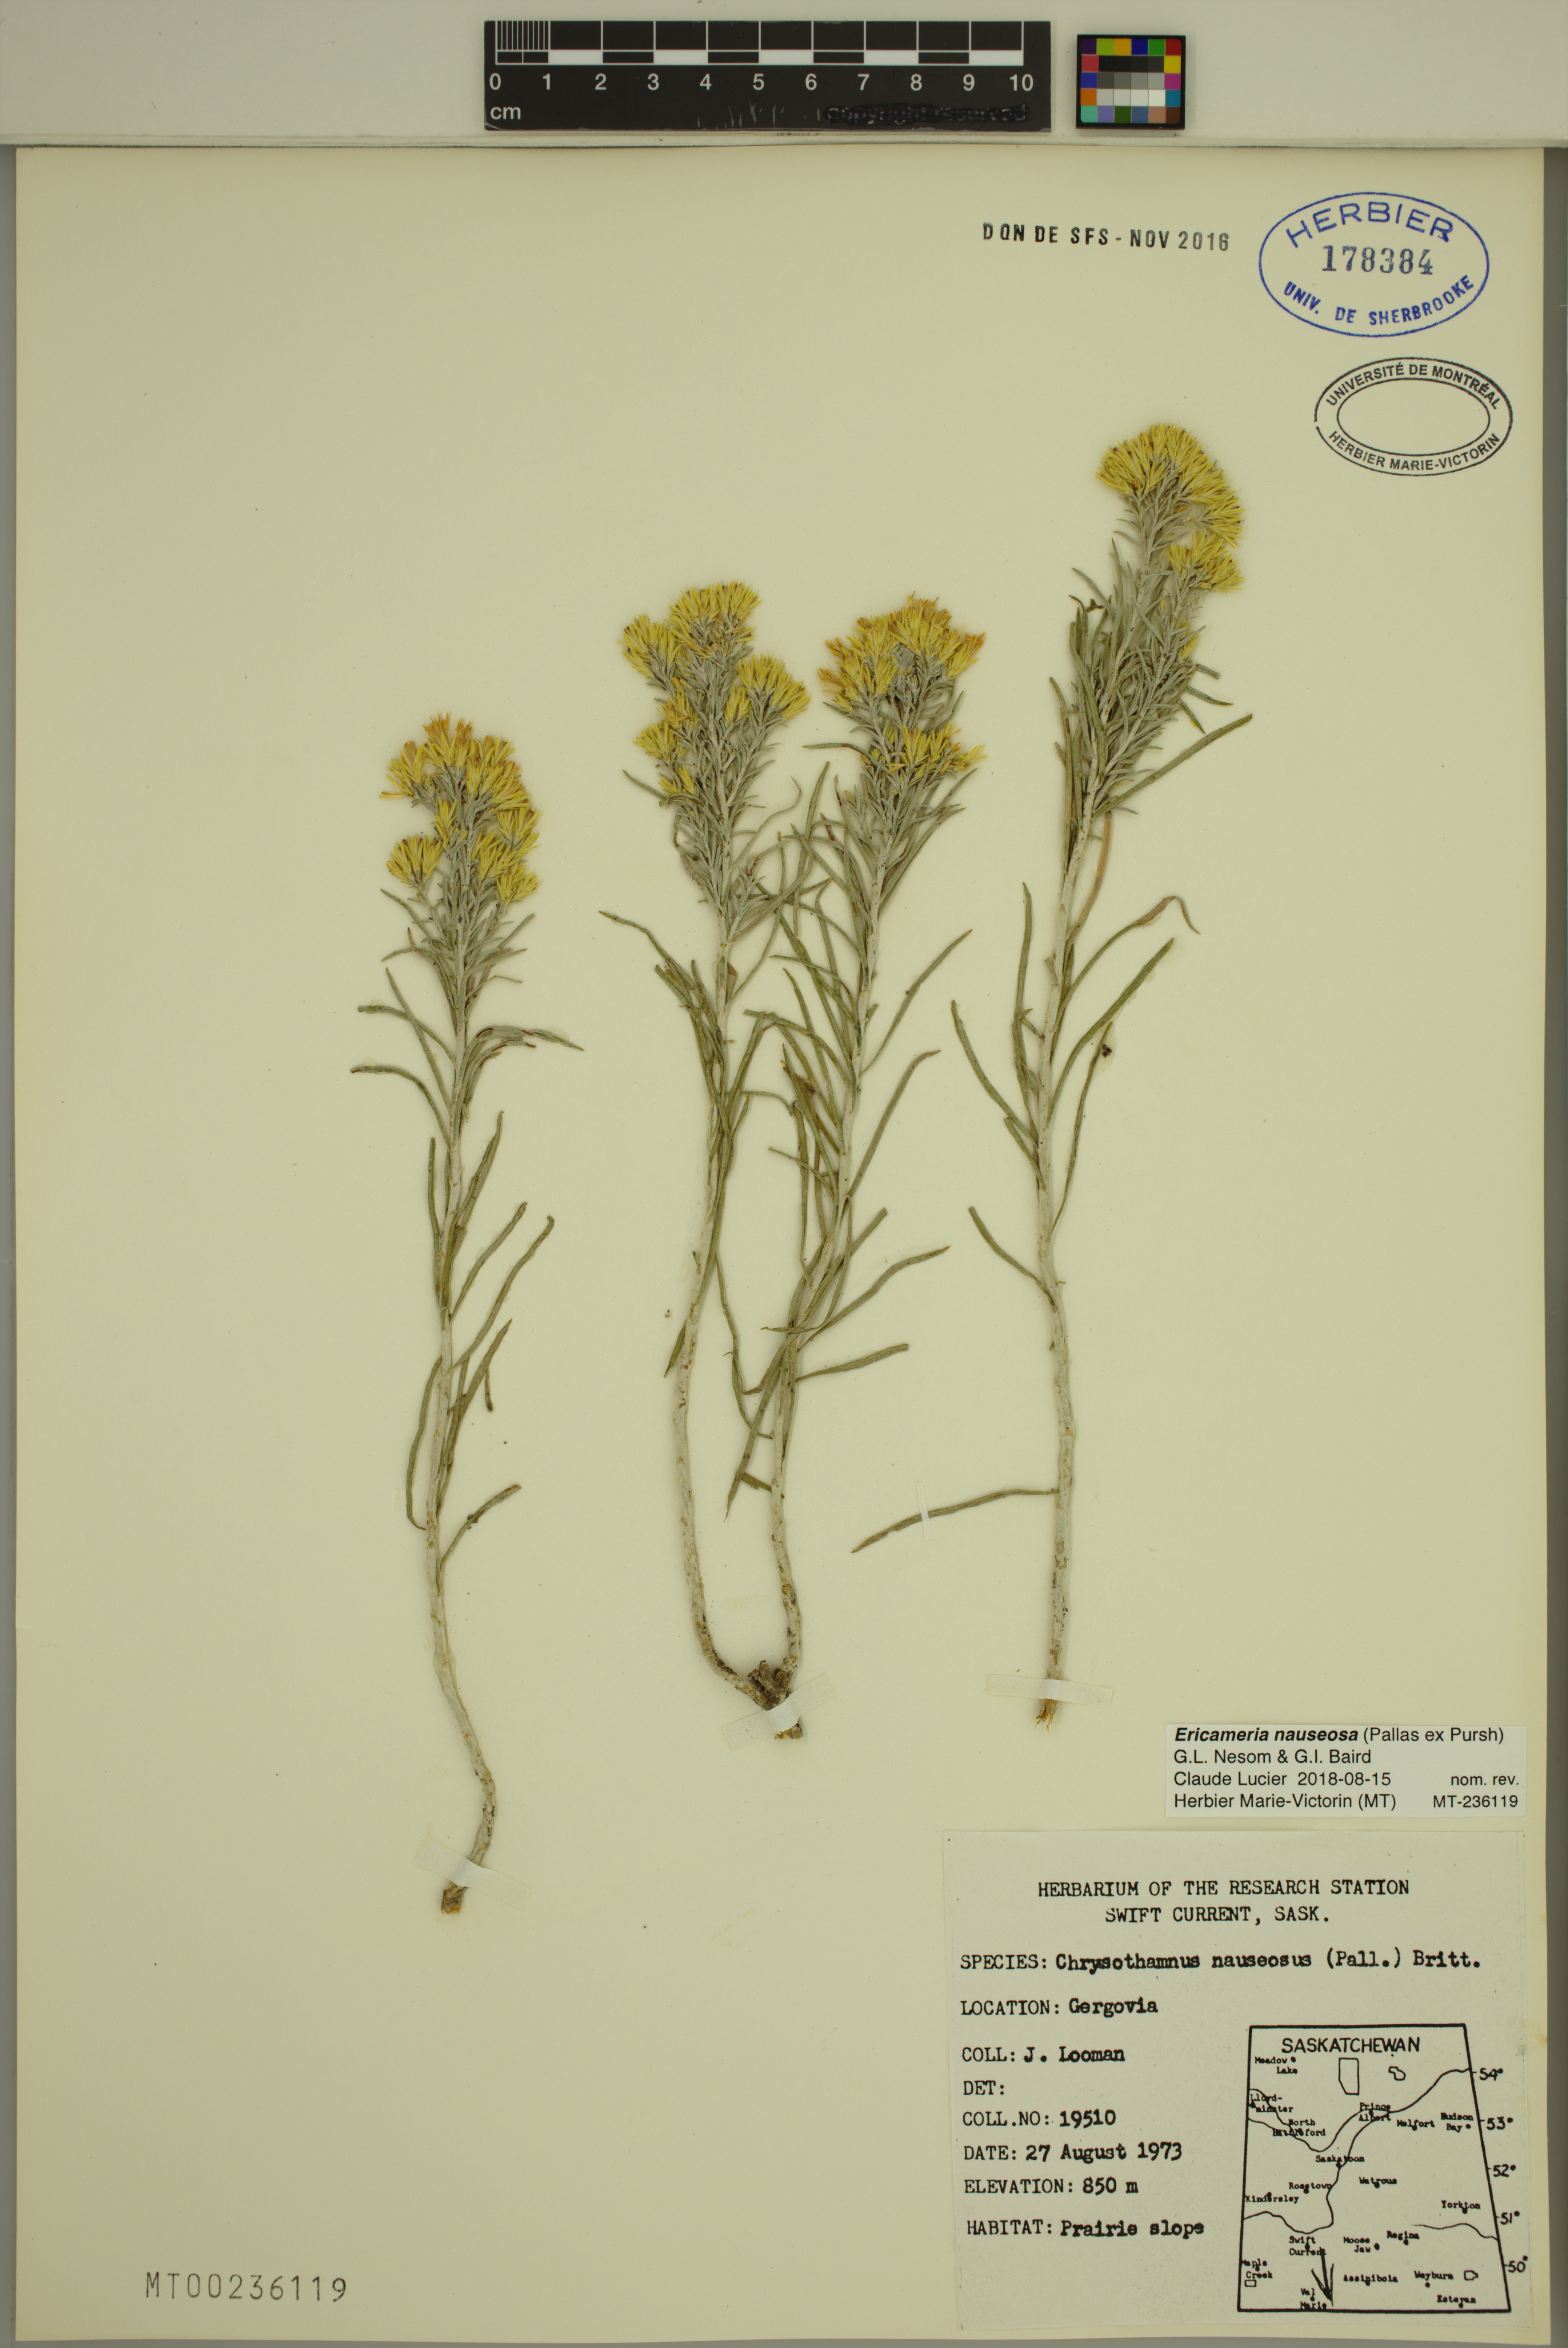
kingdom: Plantae
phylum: Tracheophyta
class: Magnoliopsida
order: Asterales
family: Asteraceae
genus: Ericameria
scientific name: Ericameria nauseosa
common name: Rubber rabbitbrush
